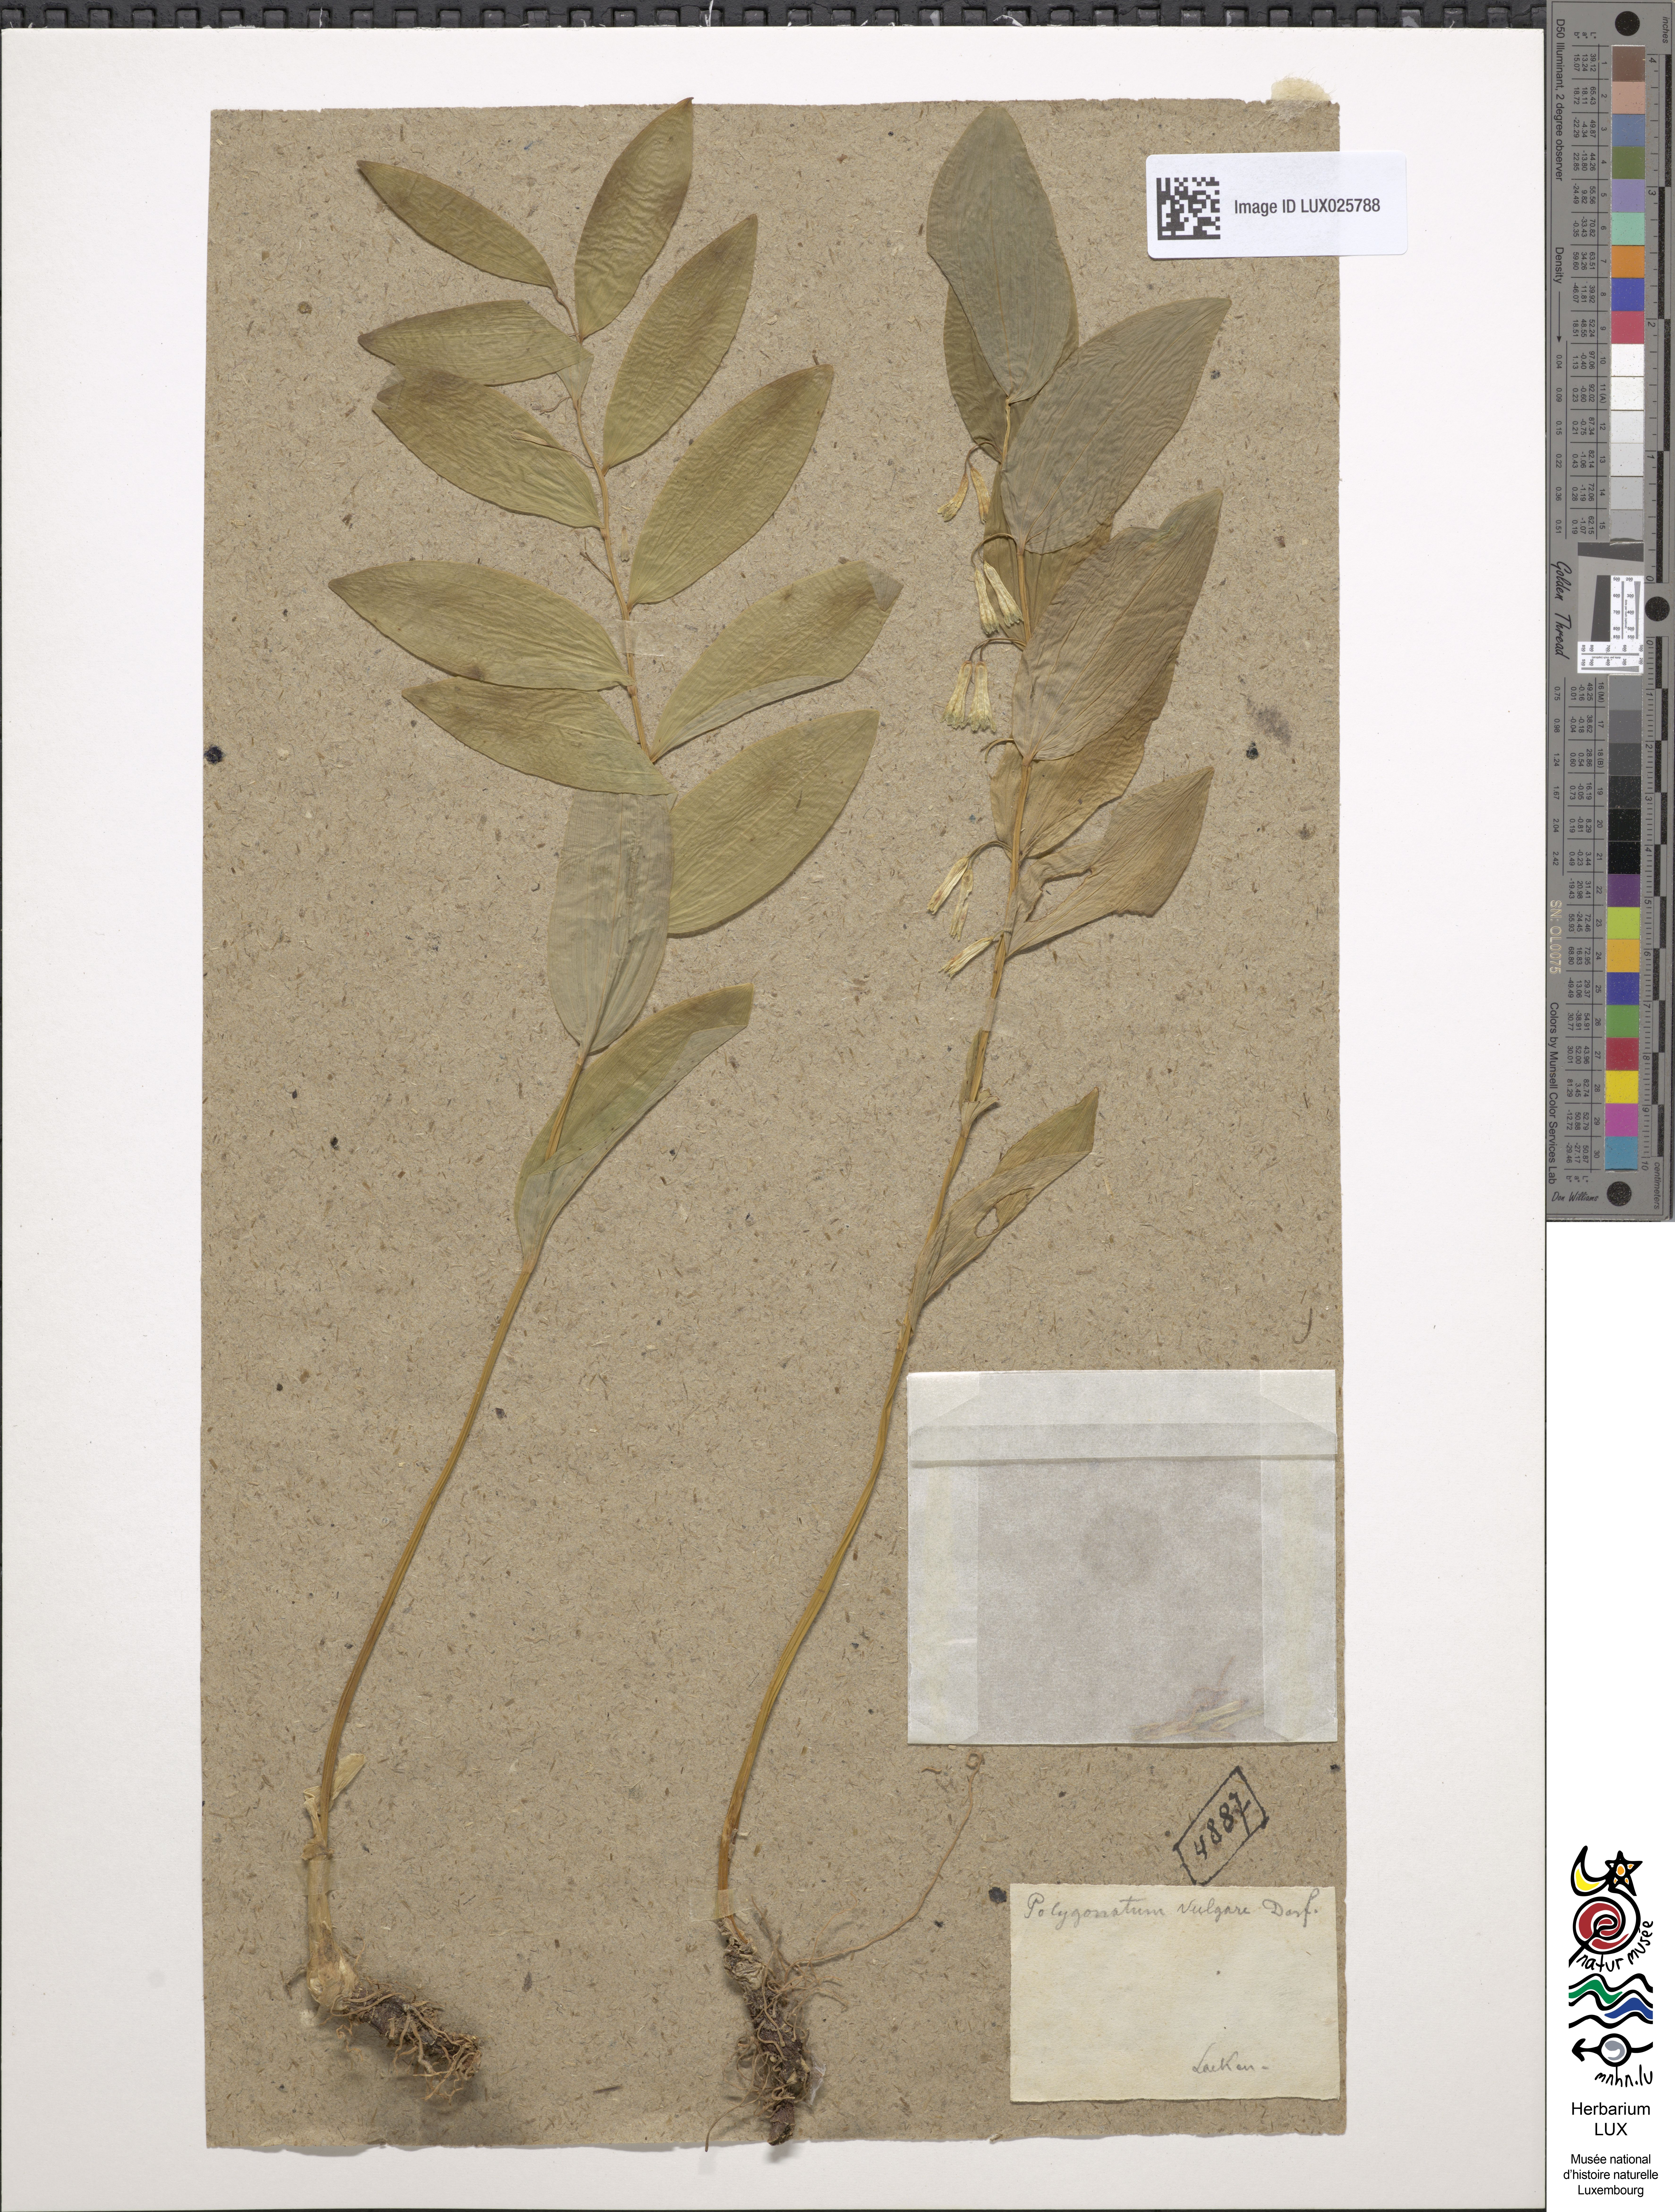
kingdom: Plantae
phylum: Tracheophyta
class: Liliopsida
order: Asparagales
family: Asparagaceae
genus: Polygonatum
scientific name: Polygonatum odoratum
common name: Angular solomon's-seal
